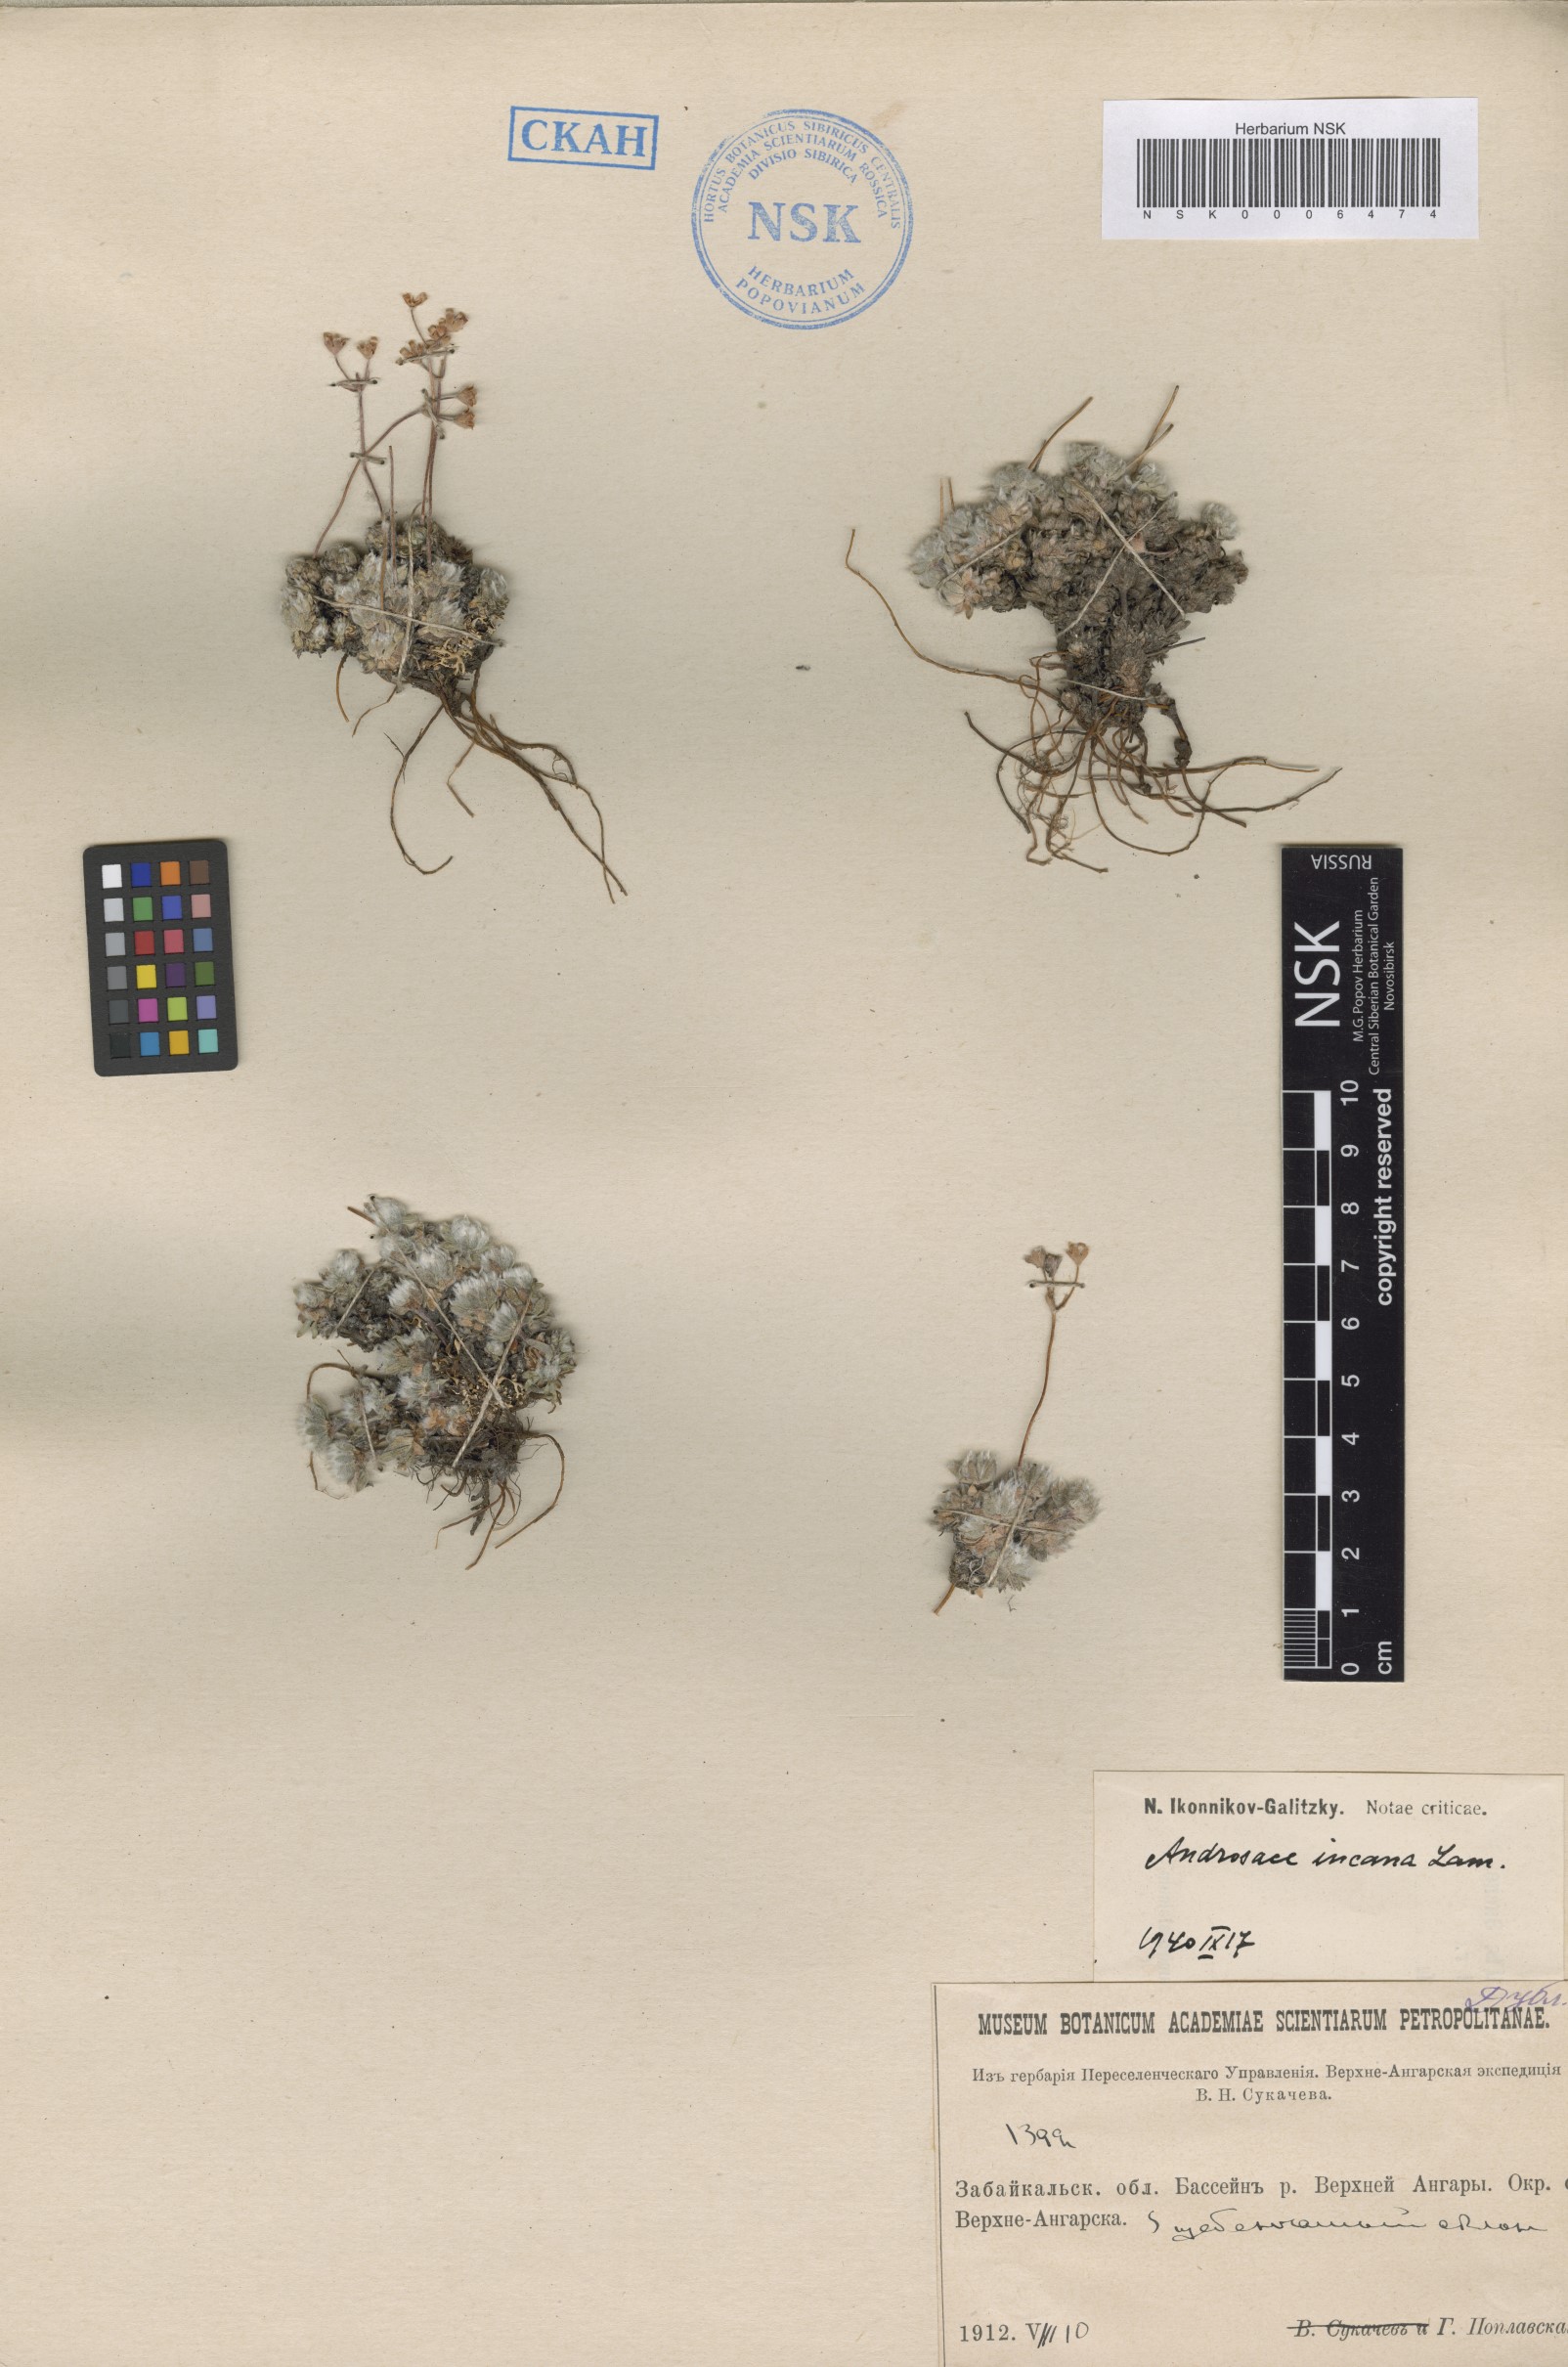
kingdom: Plantae
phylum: Tracheophyta
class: Magnoliopsida
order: Ericales
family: Primulaceae
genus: Androsace
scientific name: Androsace incana
